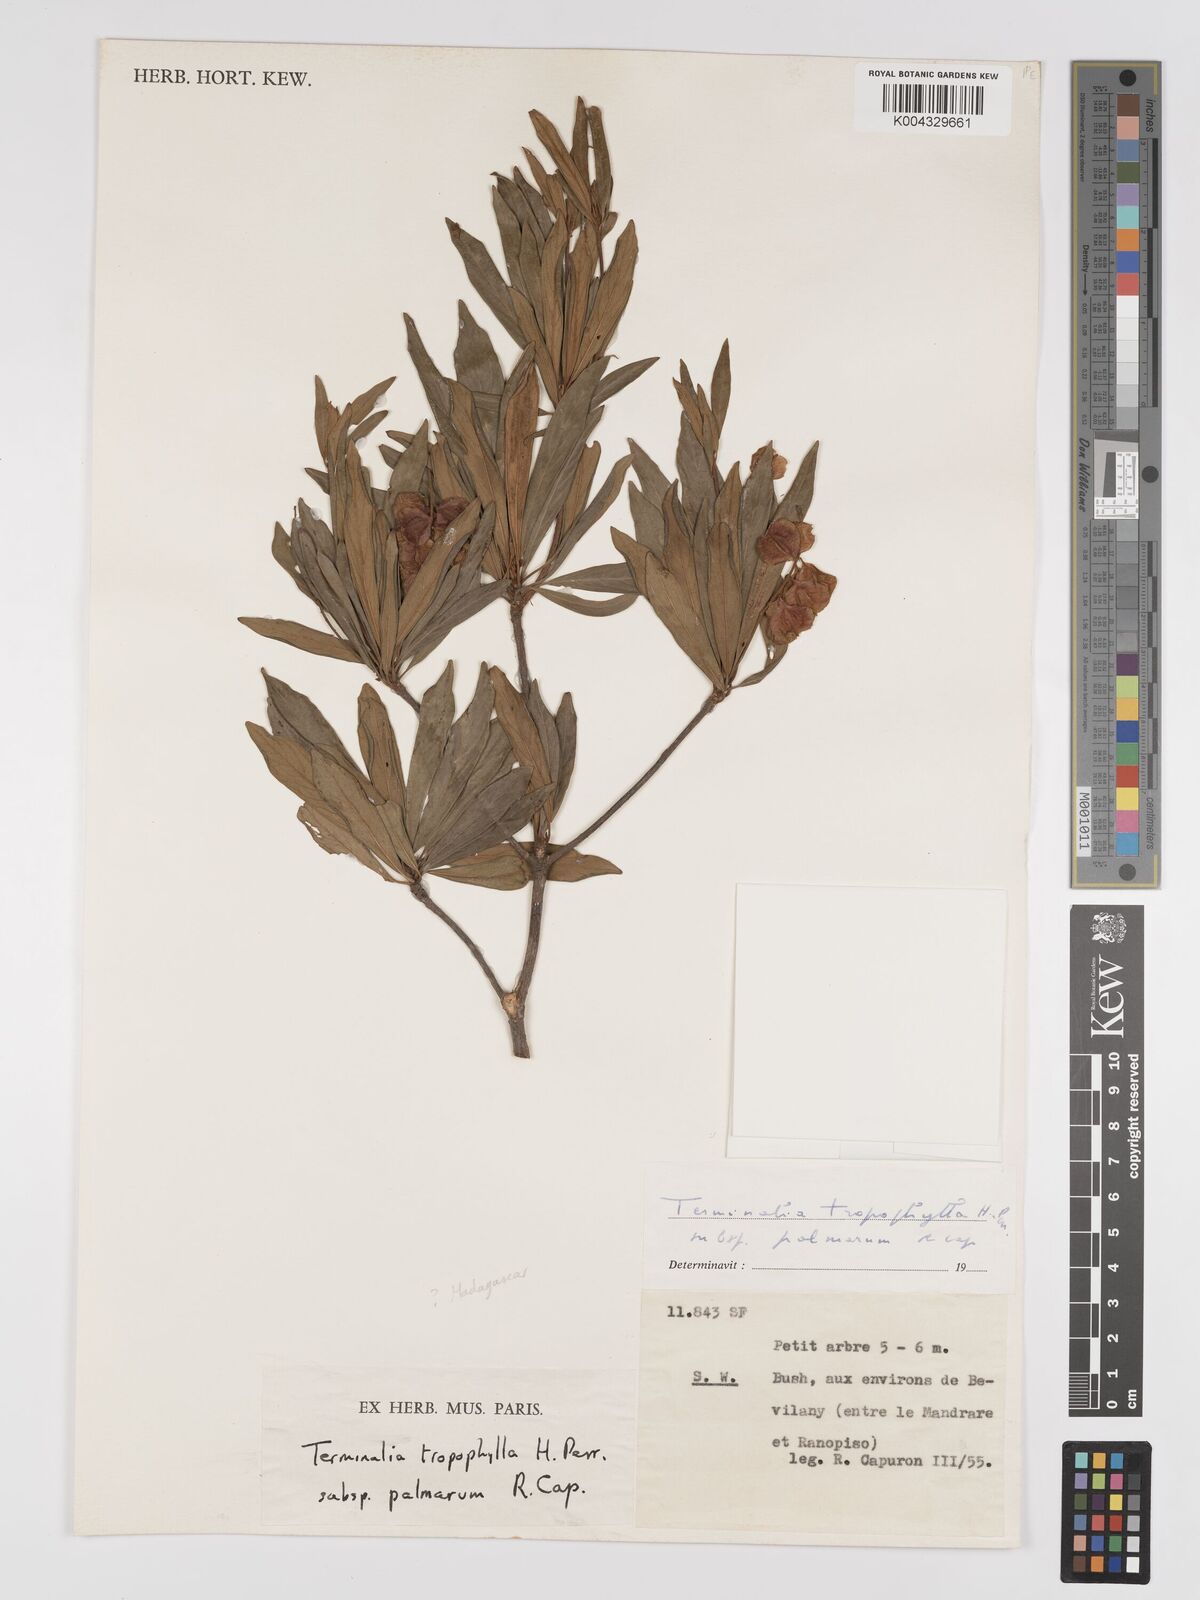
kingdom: Plantae
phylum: Tracheophyta
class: Magnoliopsida
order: Myrtales
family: Combretaceae
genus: Terminalia
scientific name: Terminalia tropophylla
